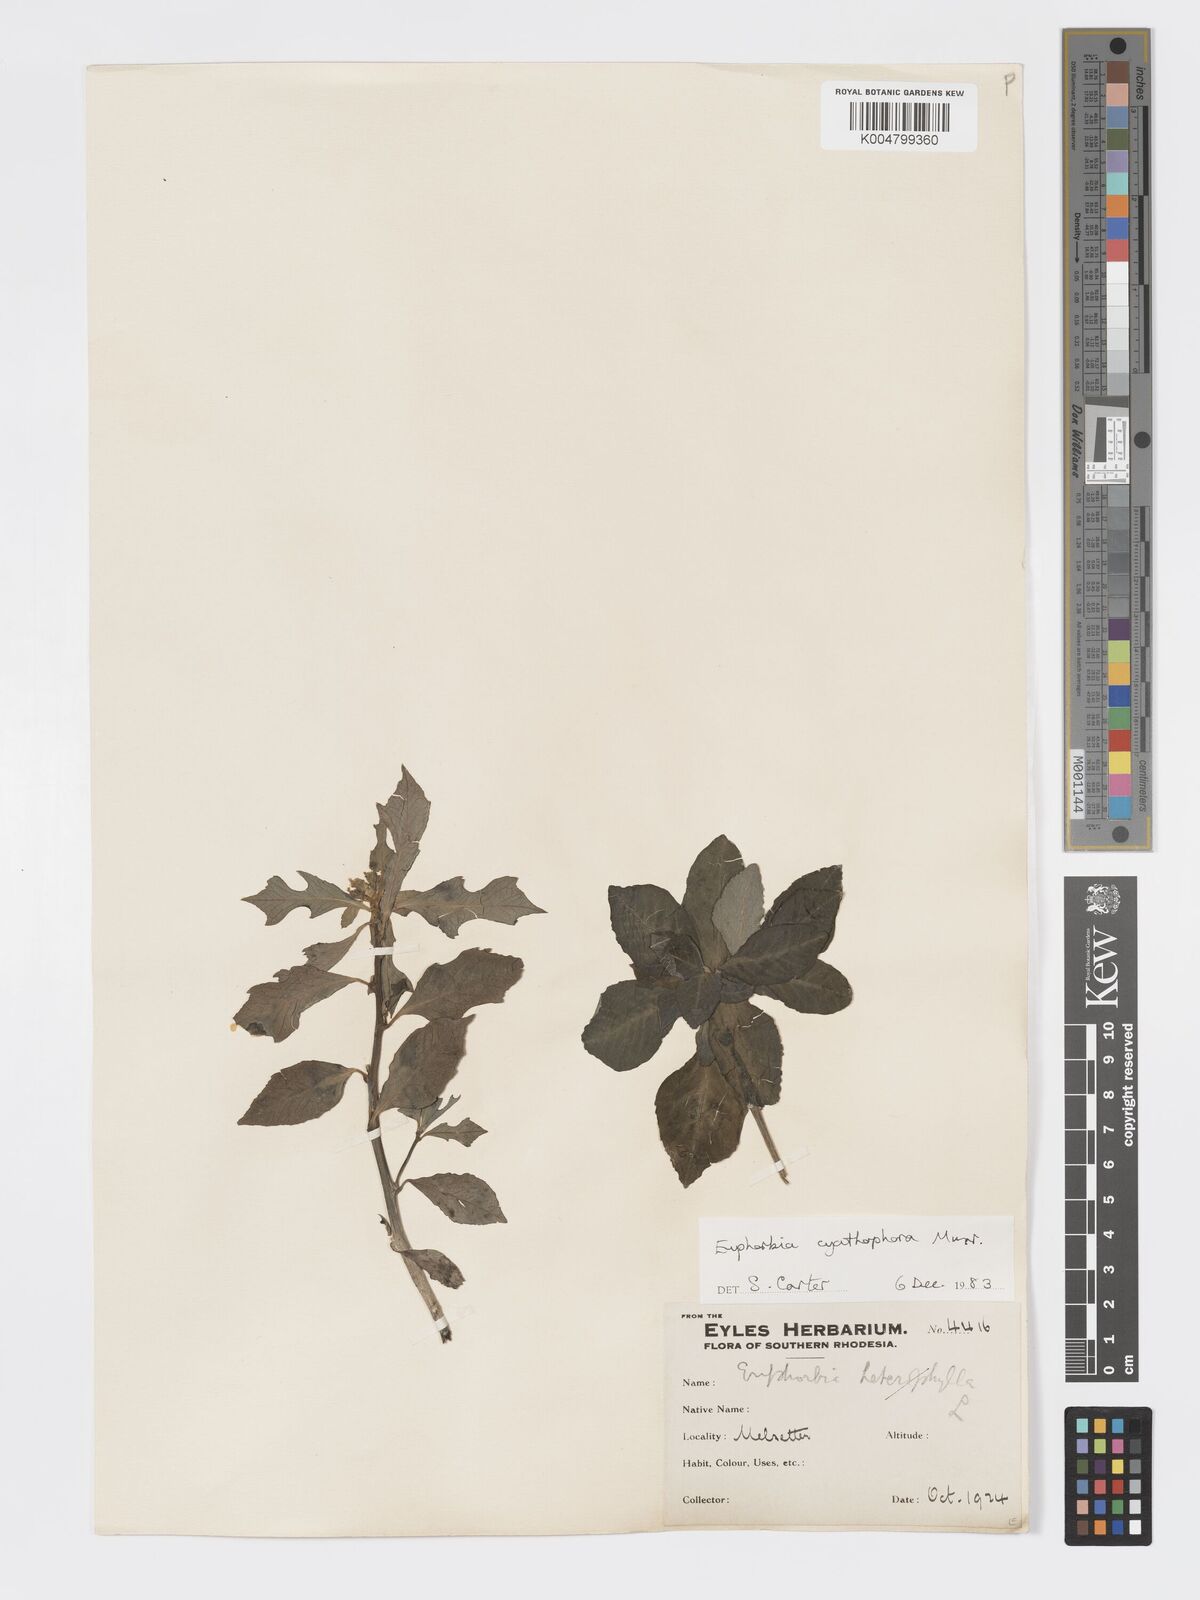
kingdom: Plantae
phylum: Tracheophyta
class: Magnoliopsida
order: Malpighiales
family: Euphorbiaceae
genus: Euphorbia
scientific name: Euphorbia heterophylla
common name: Mexican fireplant
